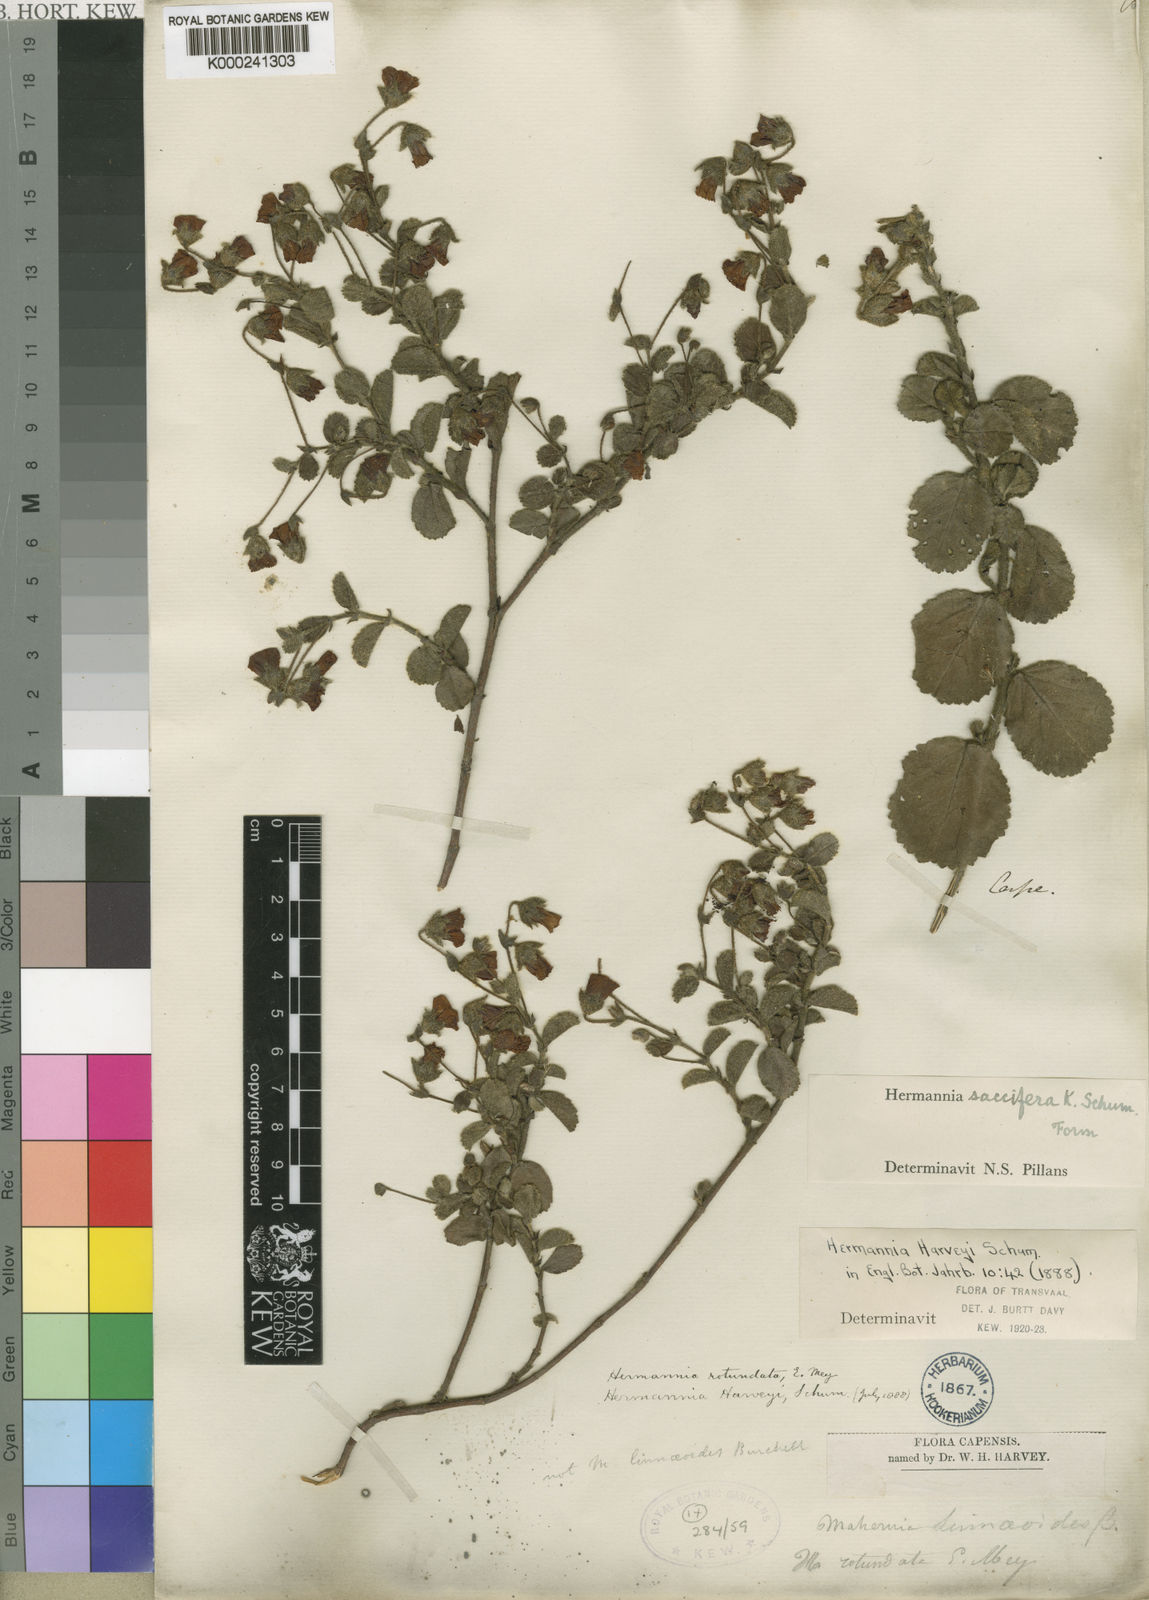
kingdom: Plantae
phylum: Tracheophyta
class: Magnoliopsida
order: Malvales
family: Malvaceae
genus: Hermannia
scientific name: Hermannia saccifera
